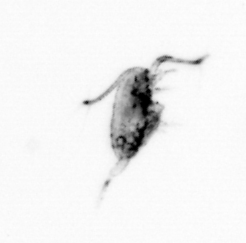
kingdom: Animalia
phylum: Arthropoda
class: Copepoda
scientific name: Copepoda
